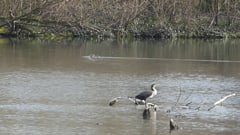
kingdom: Animalia
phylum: Chordata
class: Mammalia
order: Rodentia
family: Myocastoridae
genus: Myocastor
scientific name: Myocastor coypus
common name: Coypu
